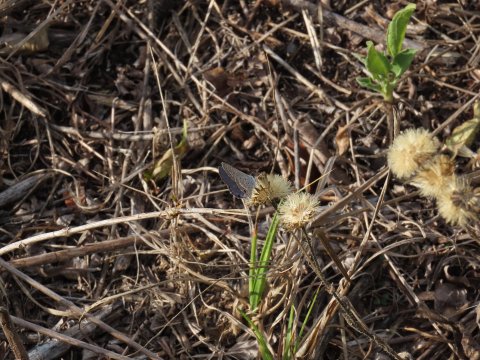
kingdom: Animalia
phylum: Arthropoda
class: Insecta
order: Lepidoptera
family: Lycaenidae
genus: Hemiargus
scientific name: Hemiargus ceraunus
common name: Ceraunus Blue
